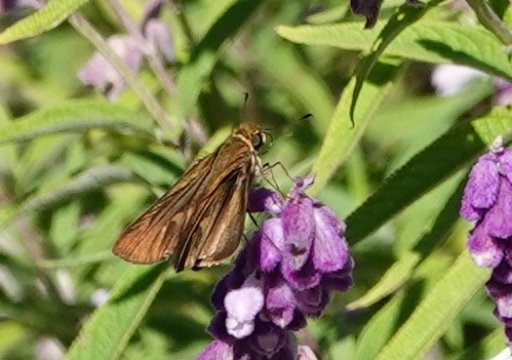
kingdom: Animalia
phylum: Arthropoda
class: Insecta
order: Lepidoptera
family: Hesperiidae
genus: Panoquina
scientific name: Panoquina ocola
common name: Ocola Skipper
